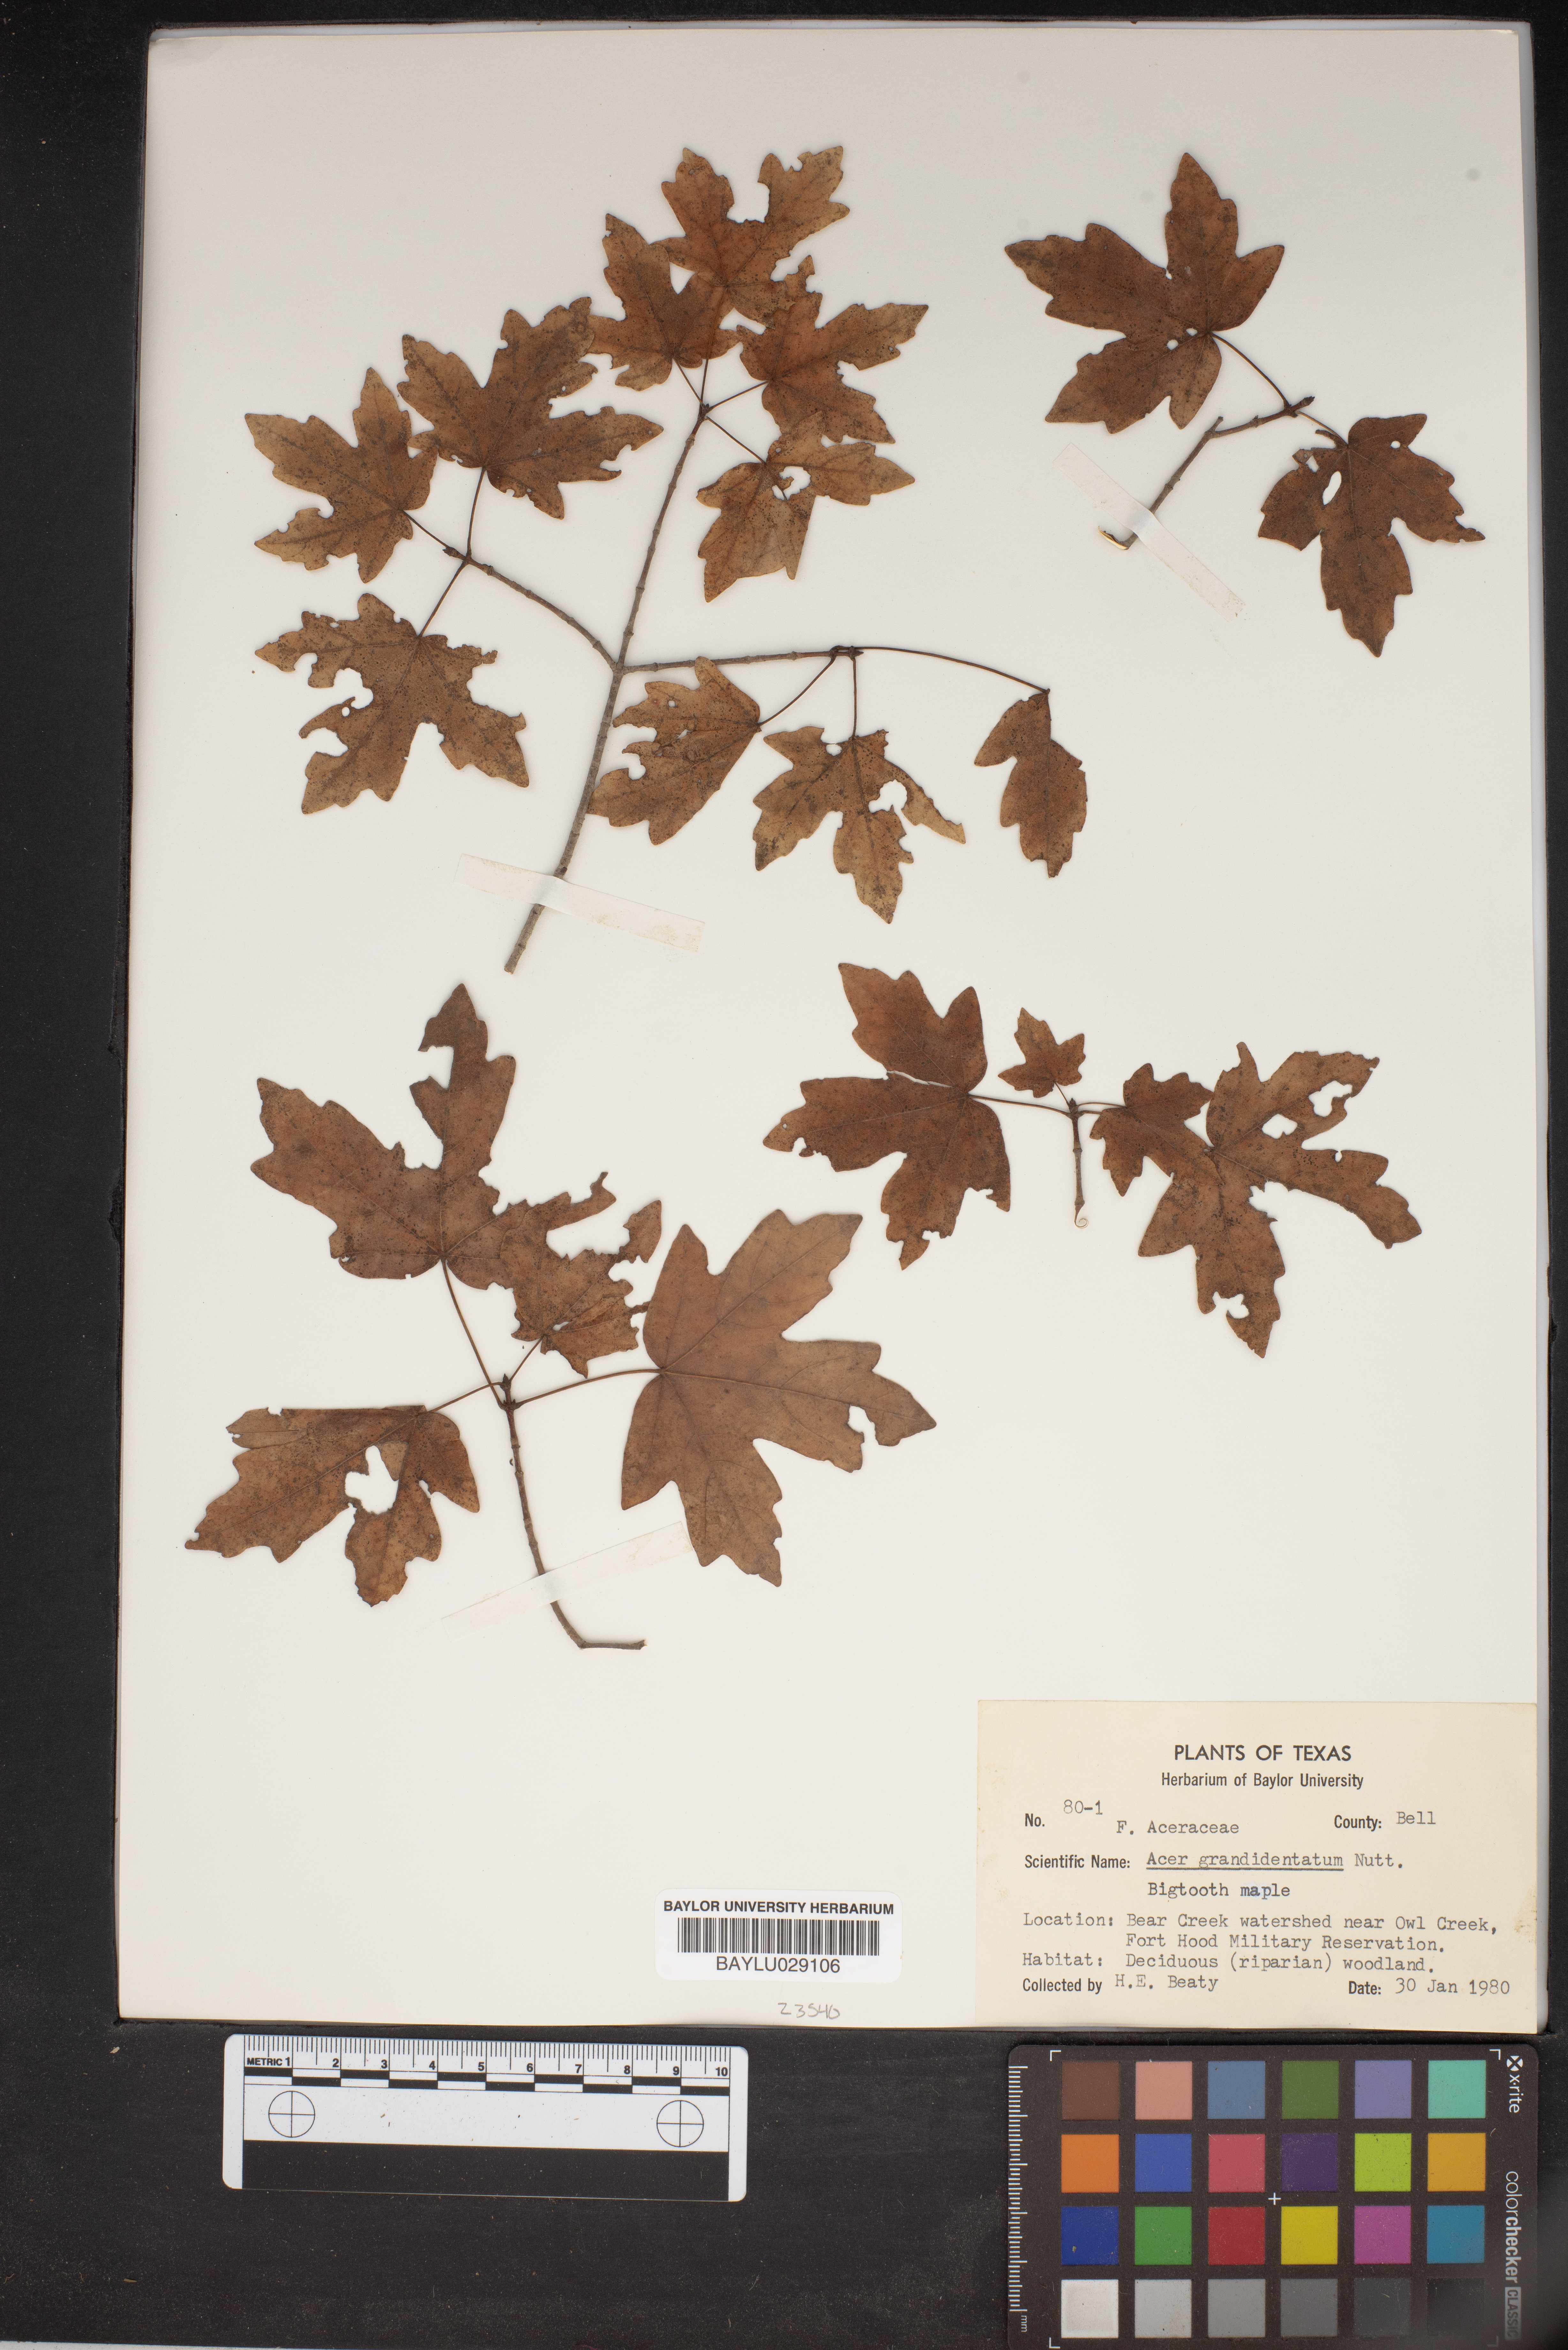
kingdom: Plantae
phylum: Tracheophyta
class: Magnoliopsida
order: Sapindales
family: Sapindaceae
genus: Acer
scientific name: Acer grandidentatum
